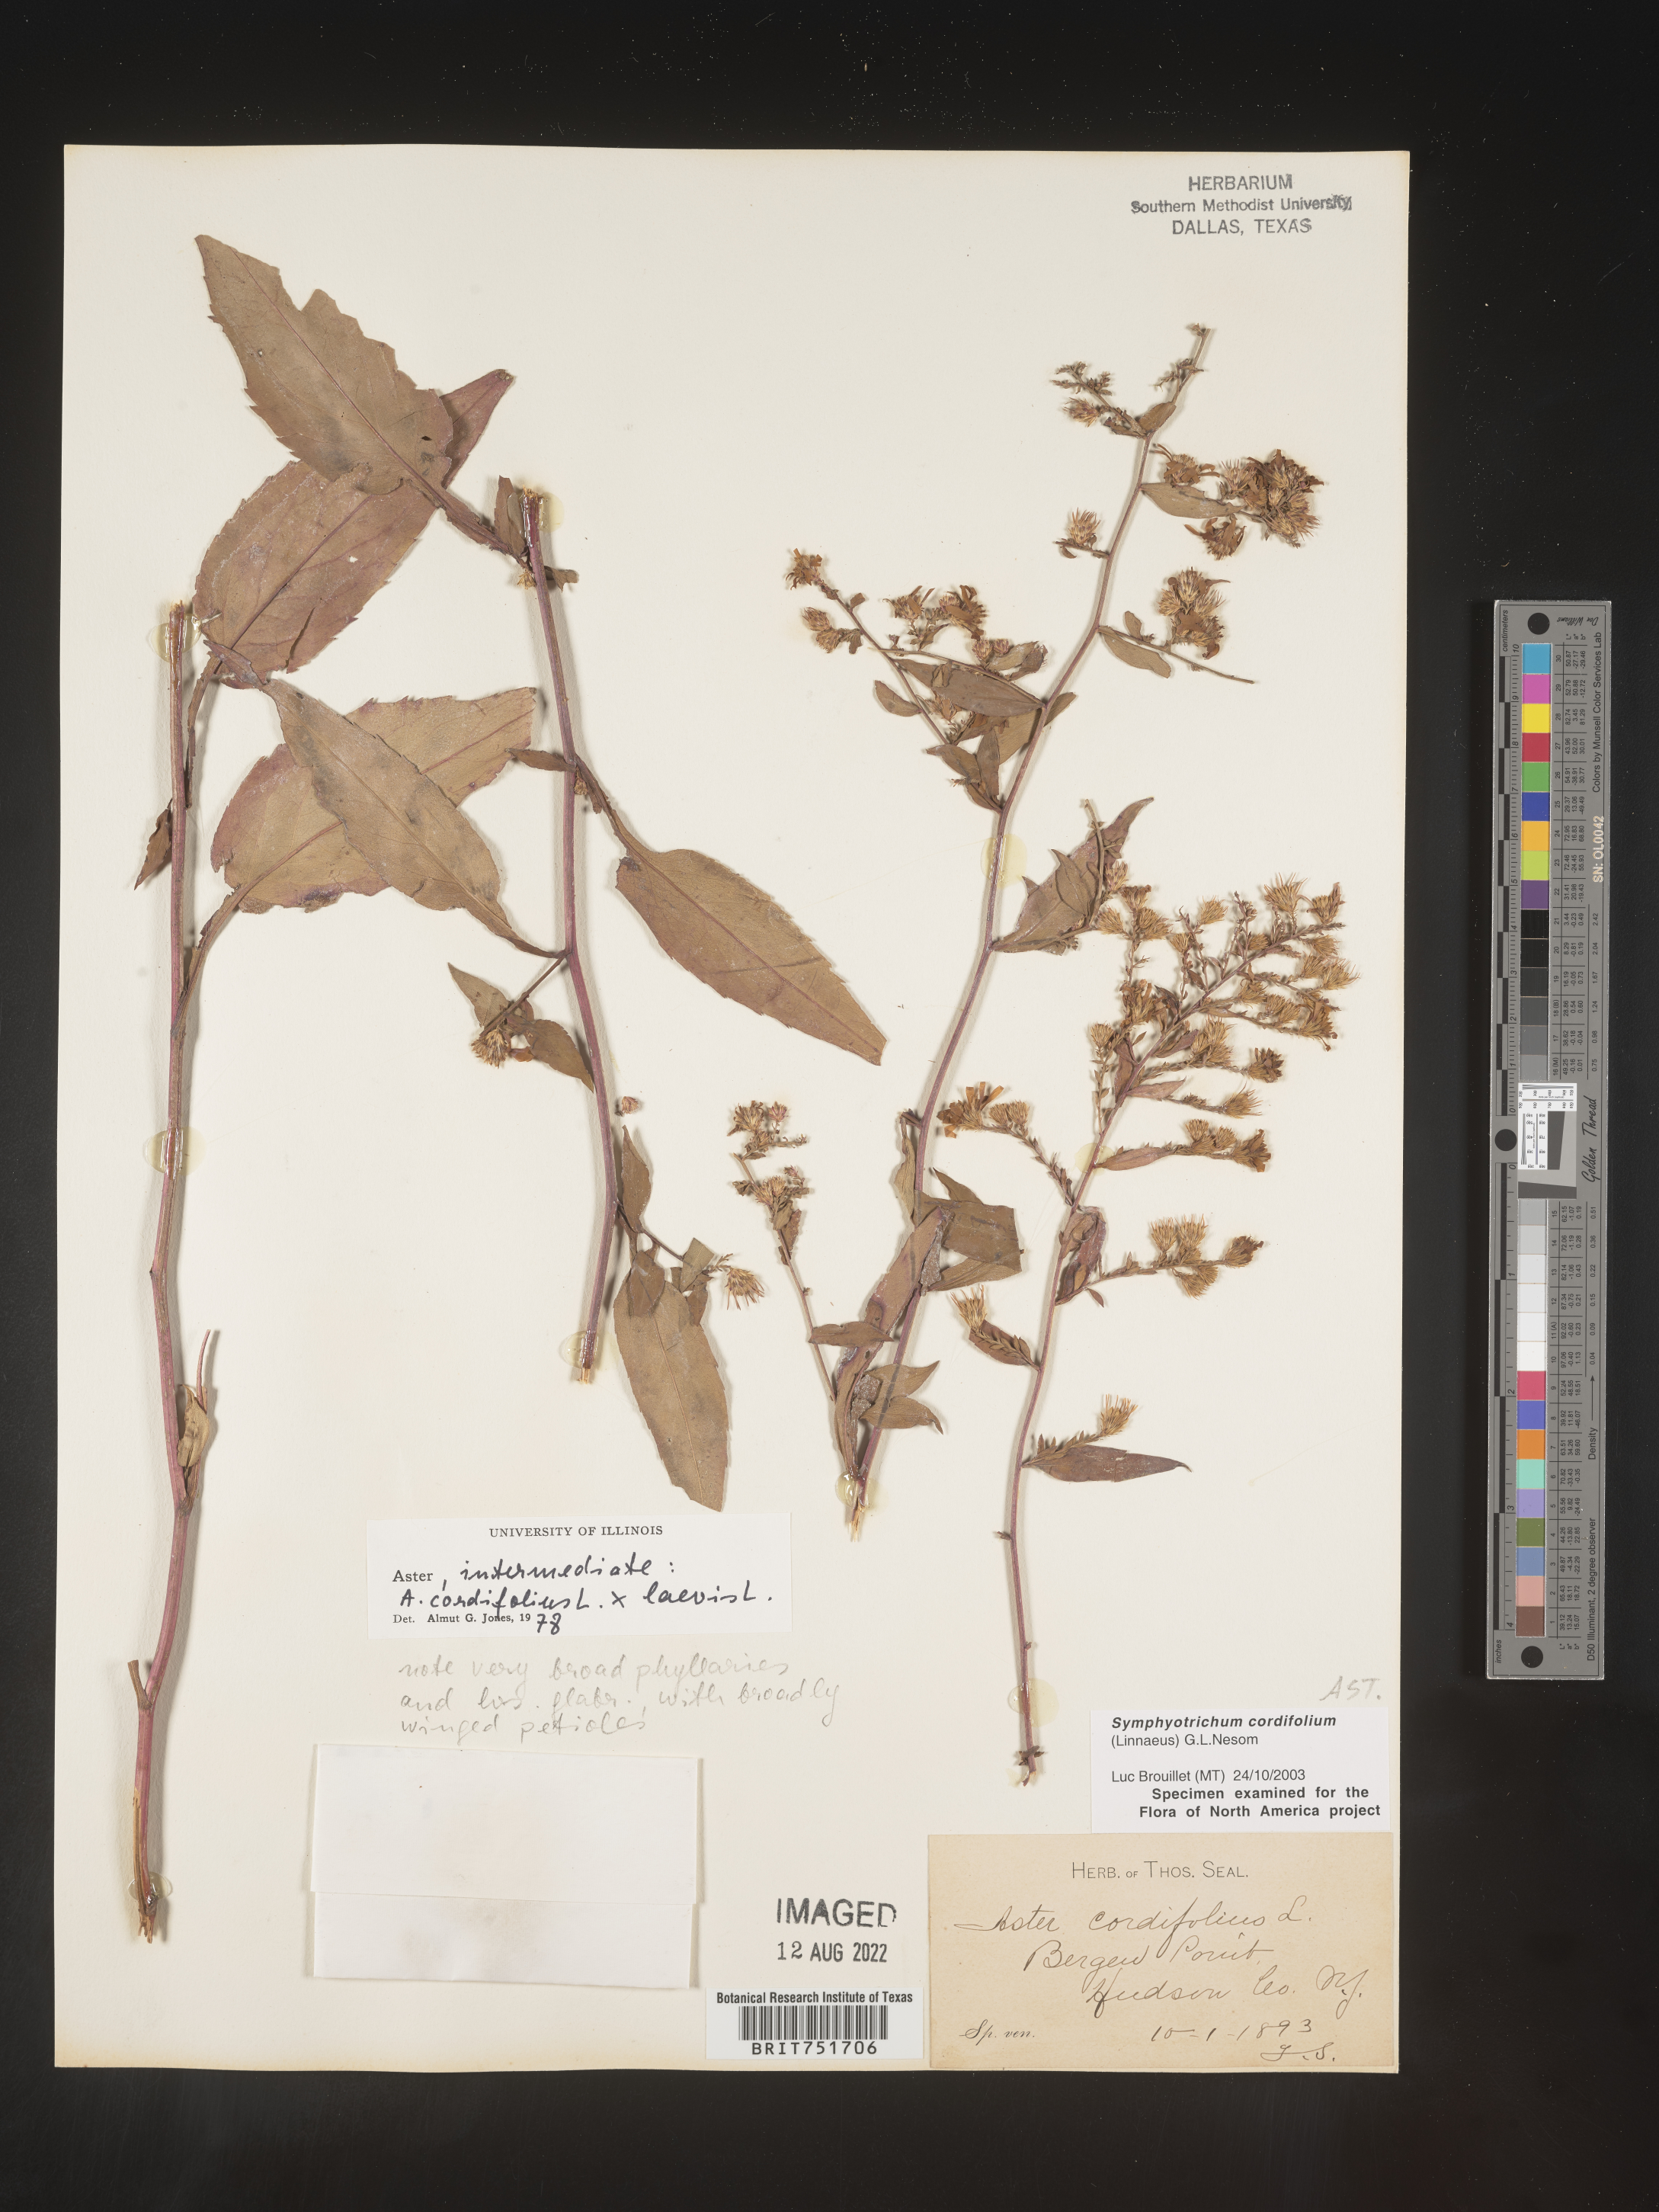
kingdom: Plantae
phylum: Tracheophyta
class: Magnoliopsida
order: Asterales
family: Asteraceae
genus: Symphyotrichum
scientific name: Symphyotrichum cordifolium
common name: Beeweed
